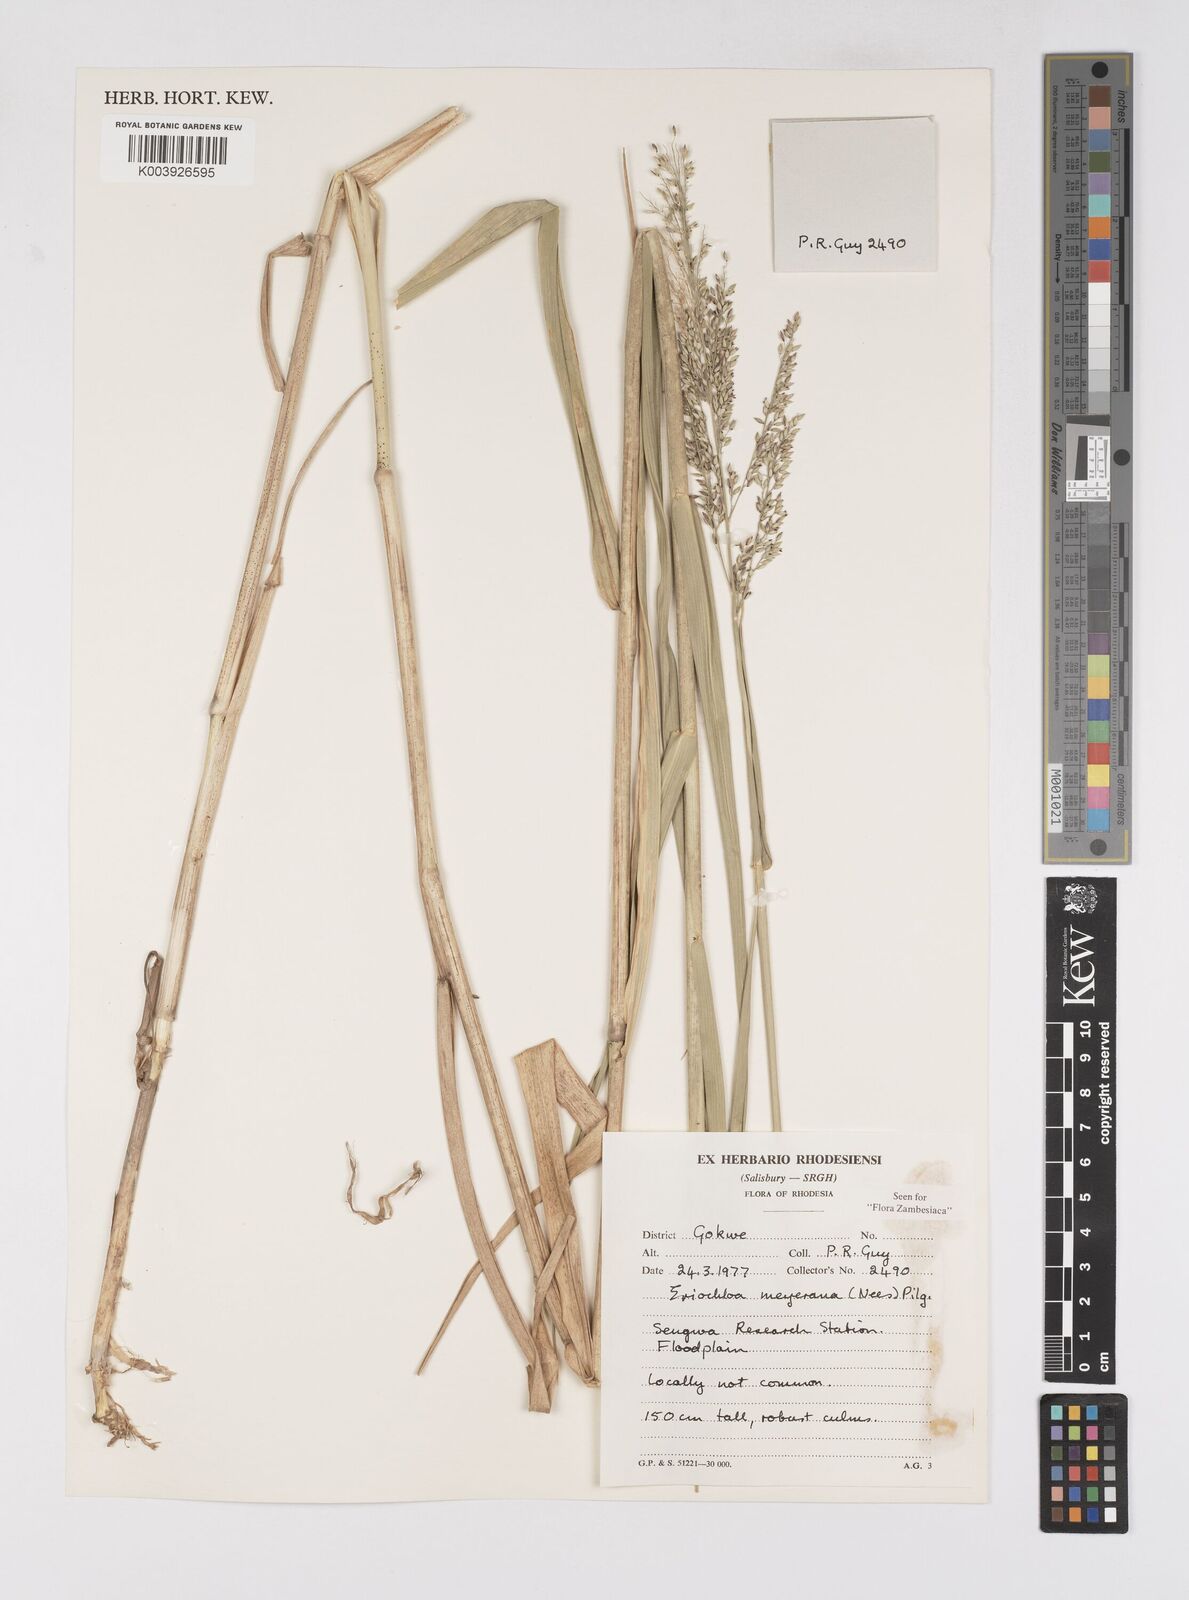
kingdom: Plantae
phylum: Tracheophyta
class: Liliopsida
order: Poales
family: Poaceae
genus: Eriochloa
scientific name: Eriochloa meyeriana
